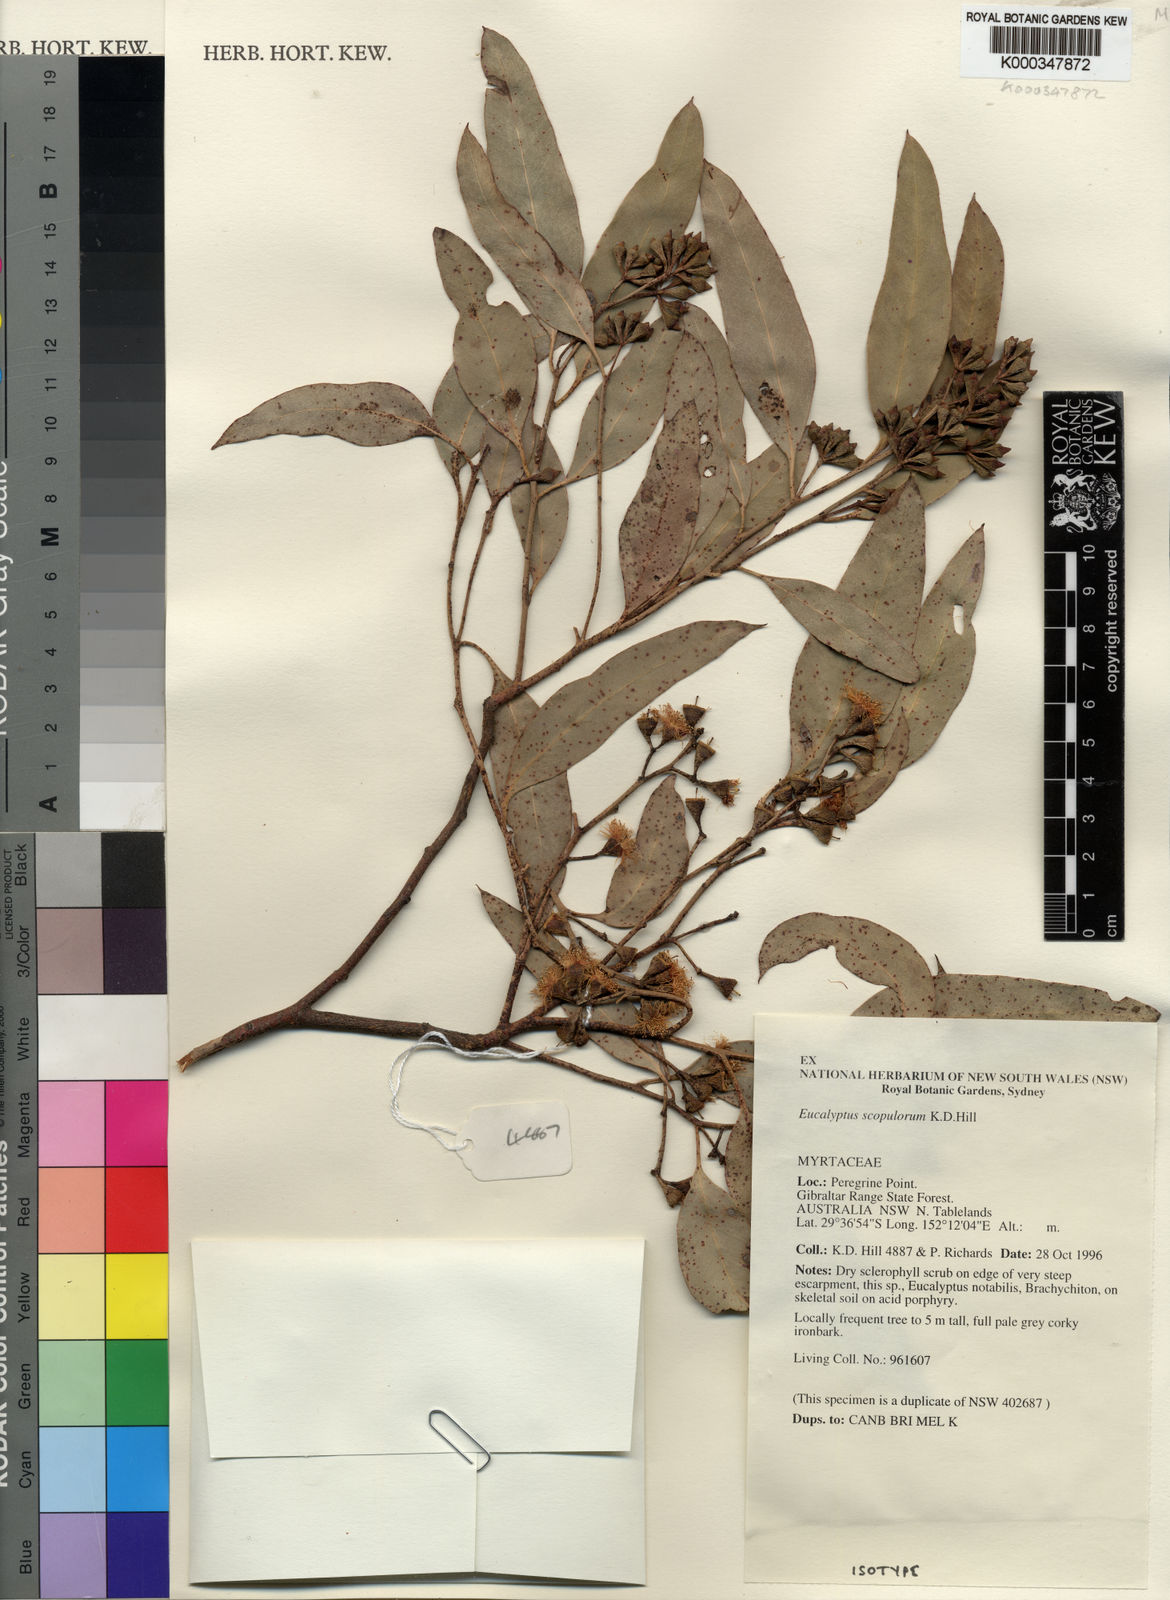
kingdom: Plantae
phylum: Tracheophyta
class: Magnoliopsida
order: Myrtales
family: Myrtaceae
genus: Eucalyptus
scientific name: Eucalyptus scopulorum
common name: Peregrine point ironbark
